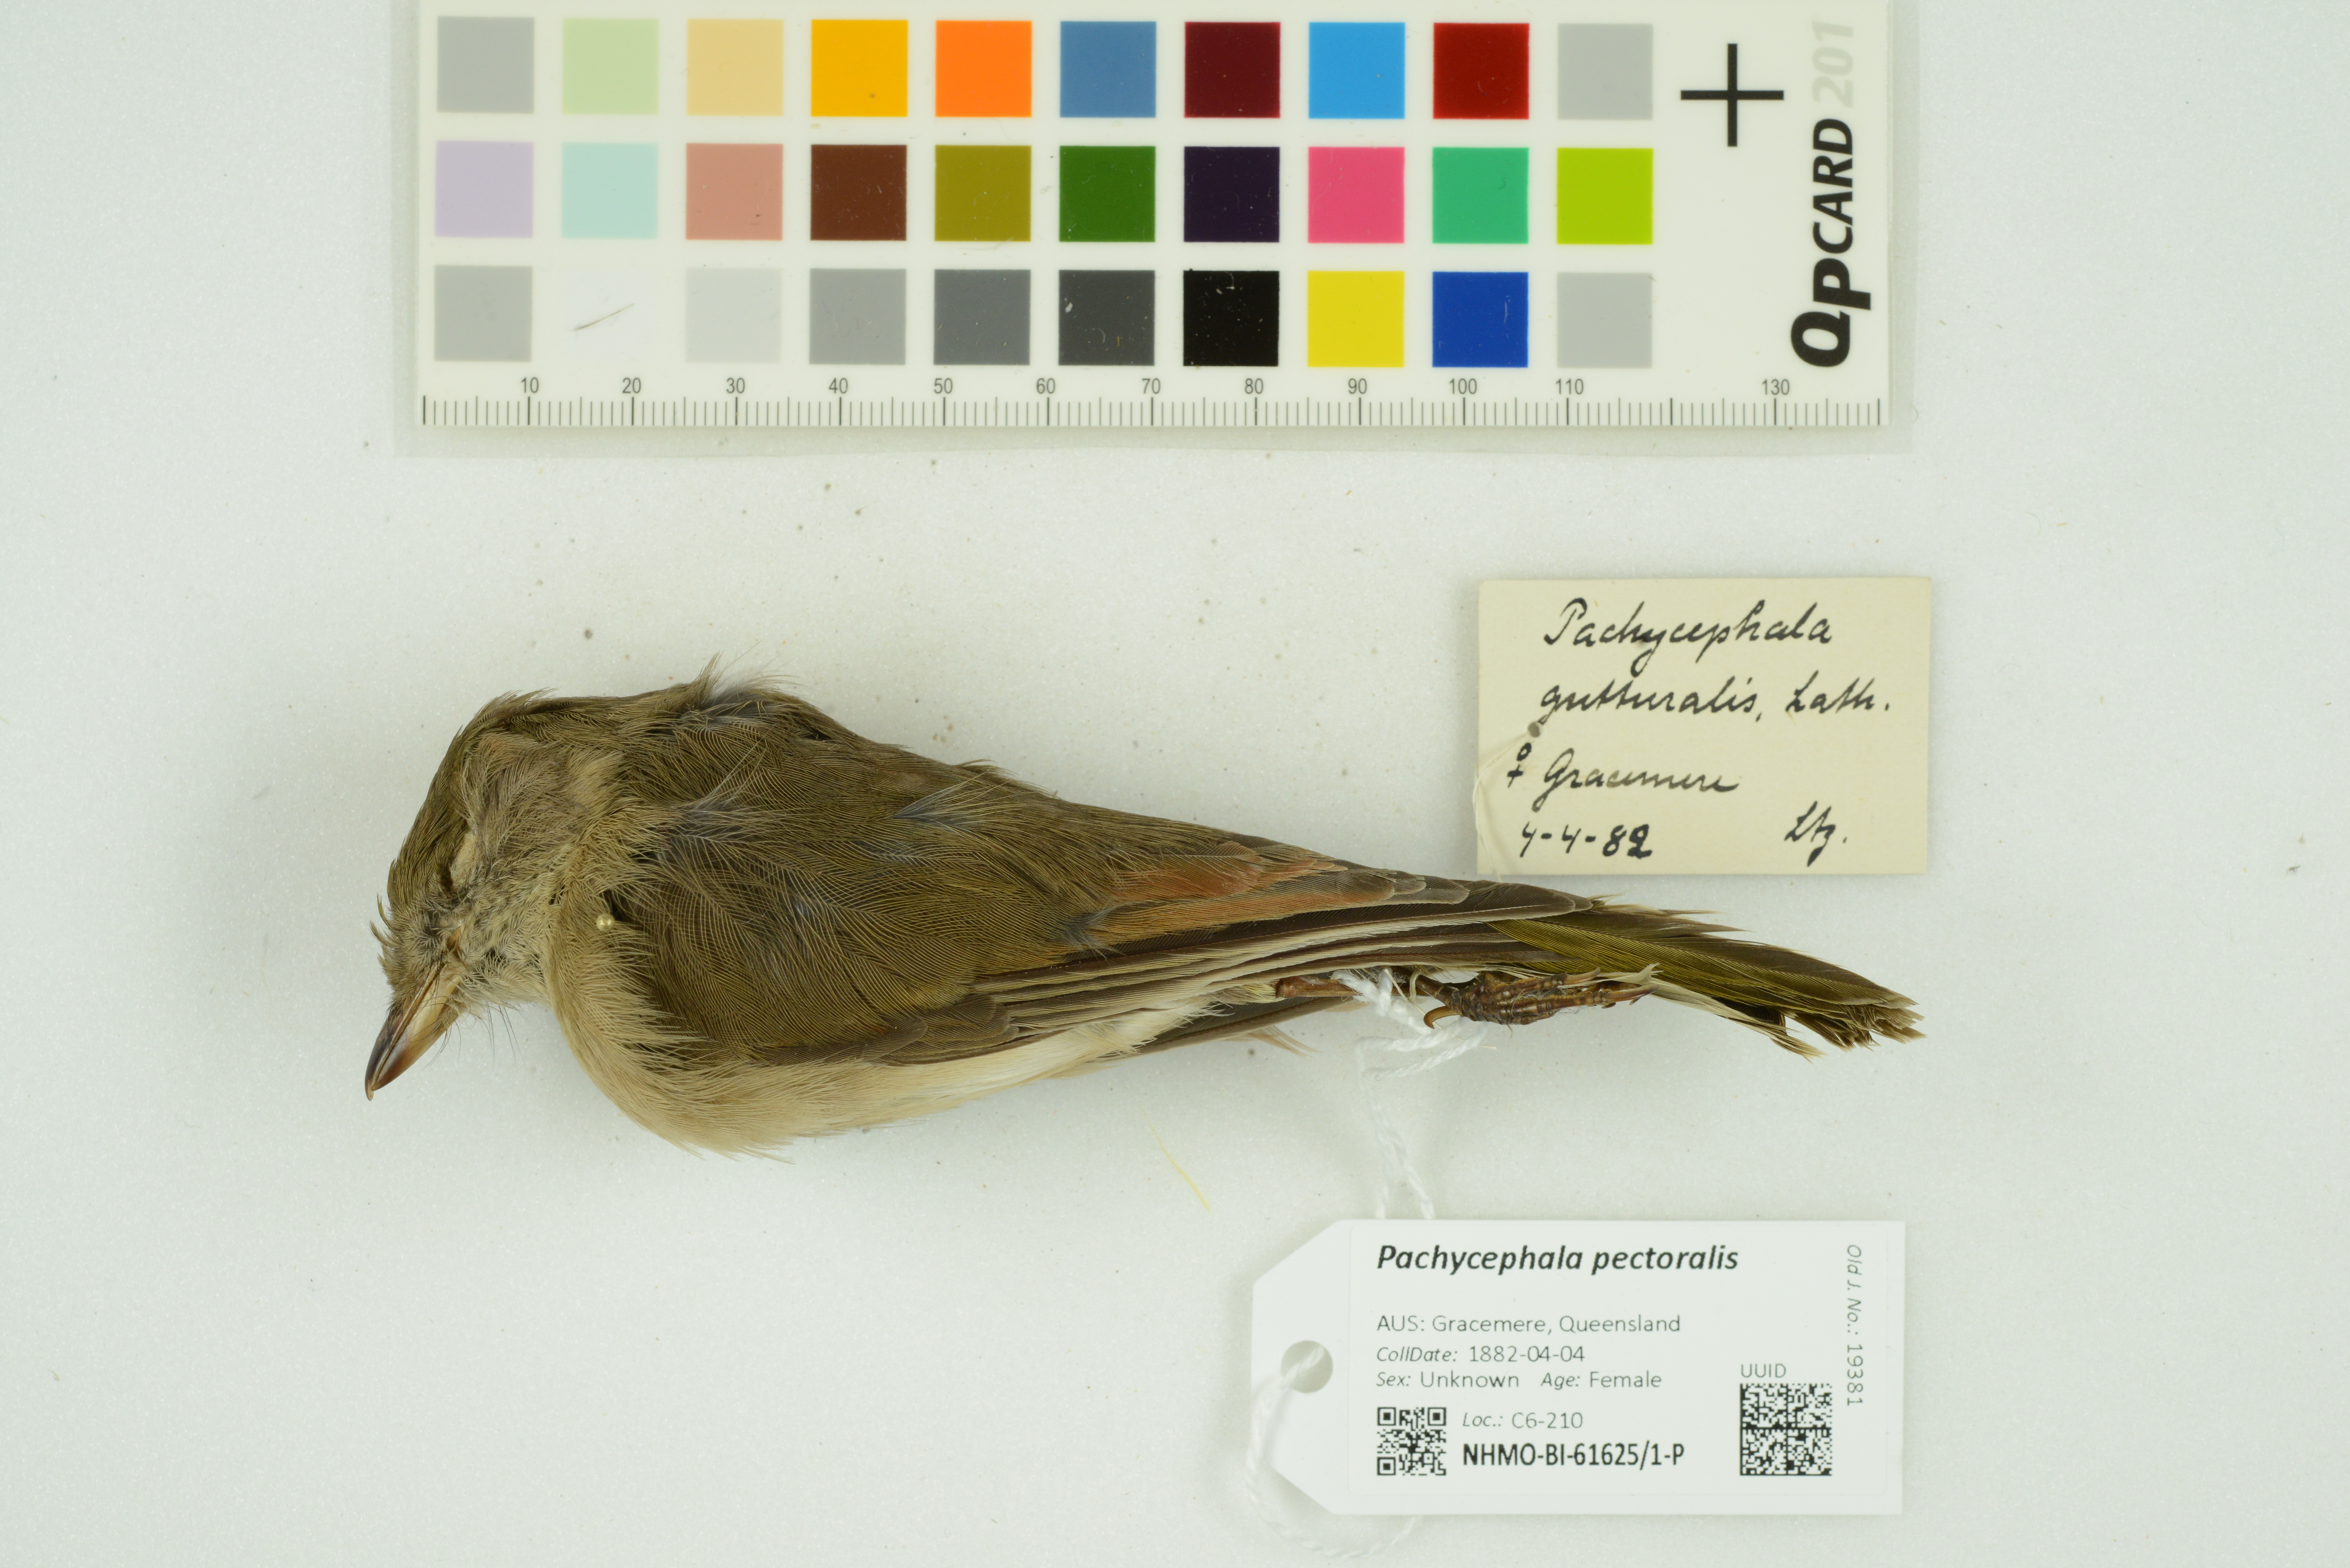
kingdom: Animalia
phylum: Chordata
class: Aves
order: Passeriformes
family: Pachycephalidae
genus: Pachycephala
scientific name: Pachycephala pectoralis
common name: Australian golden whistler
